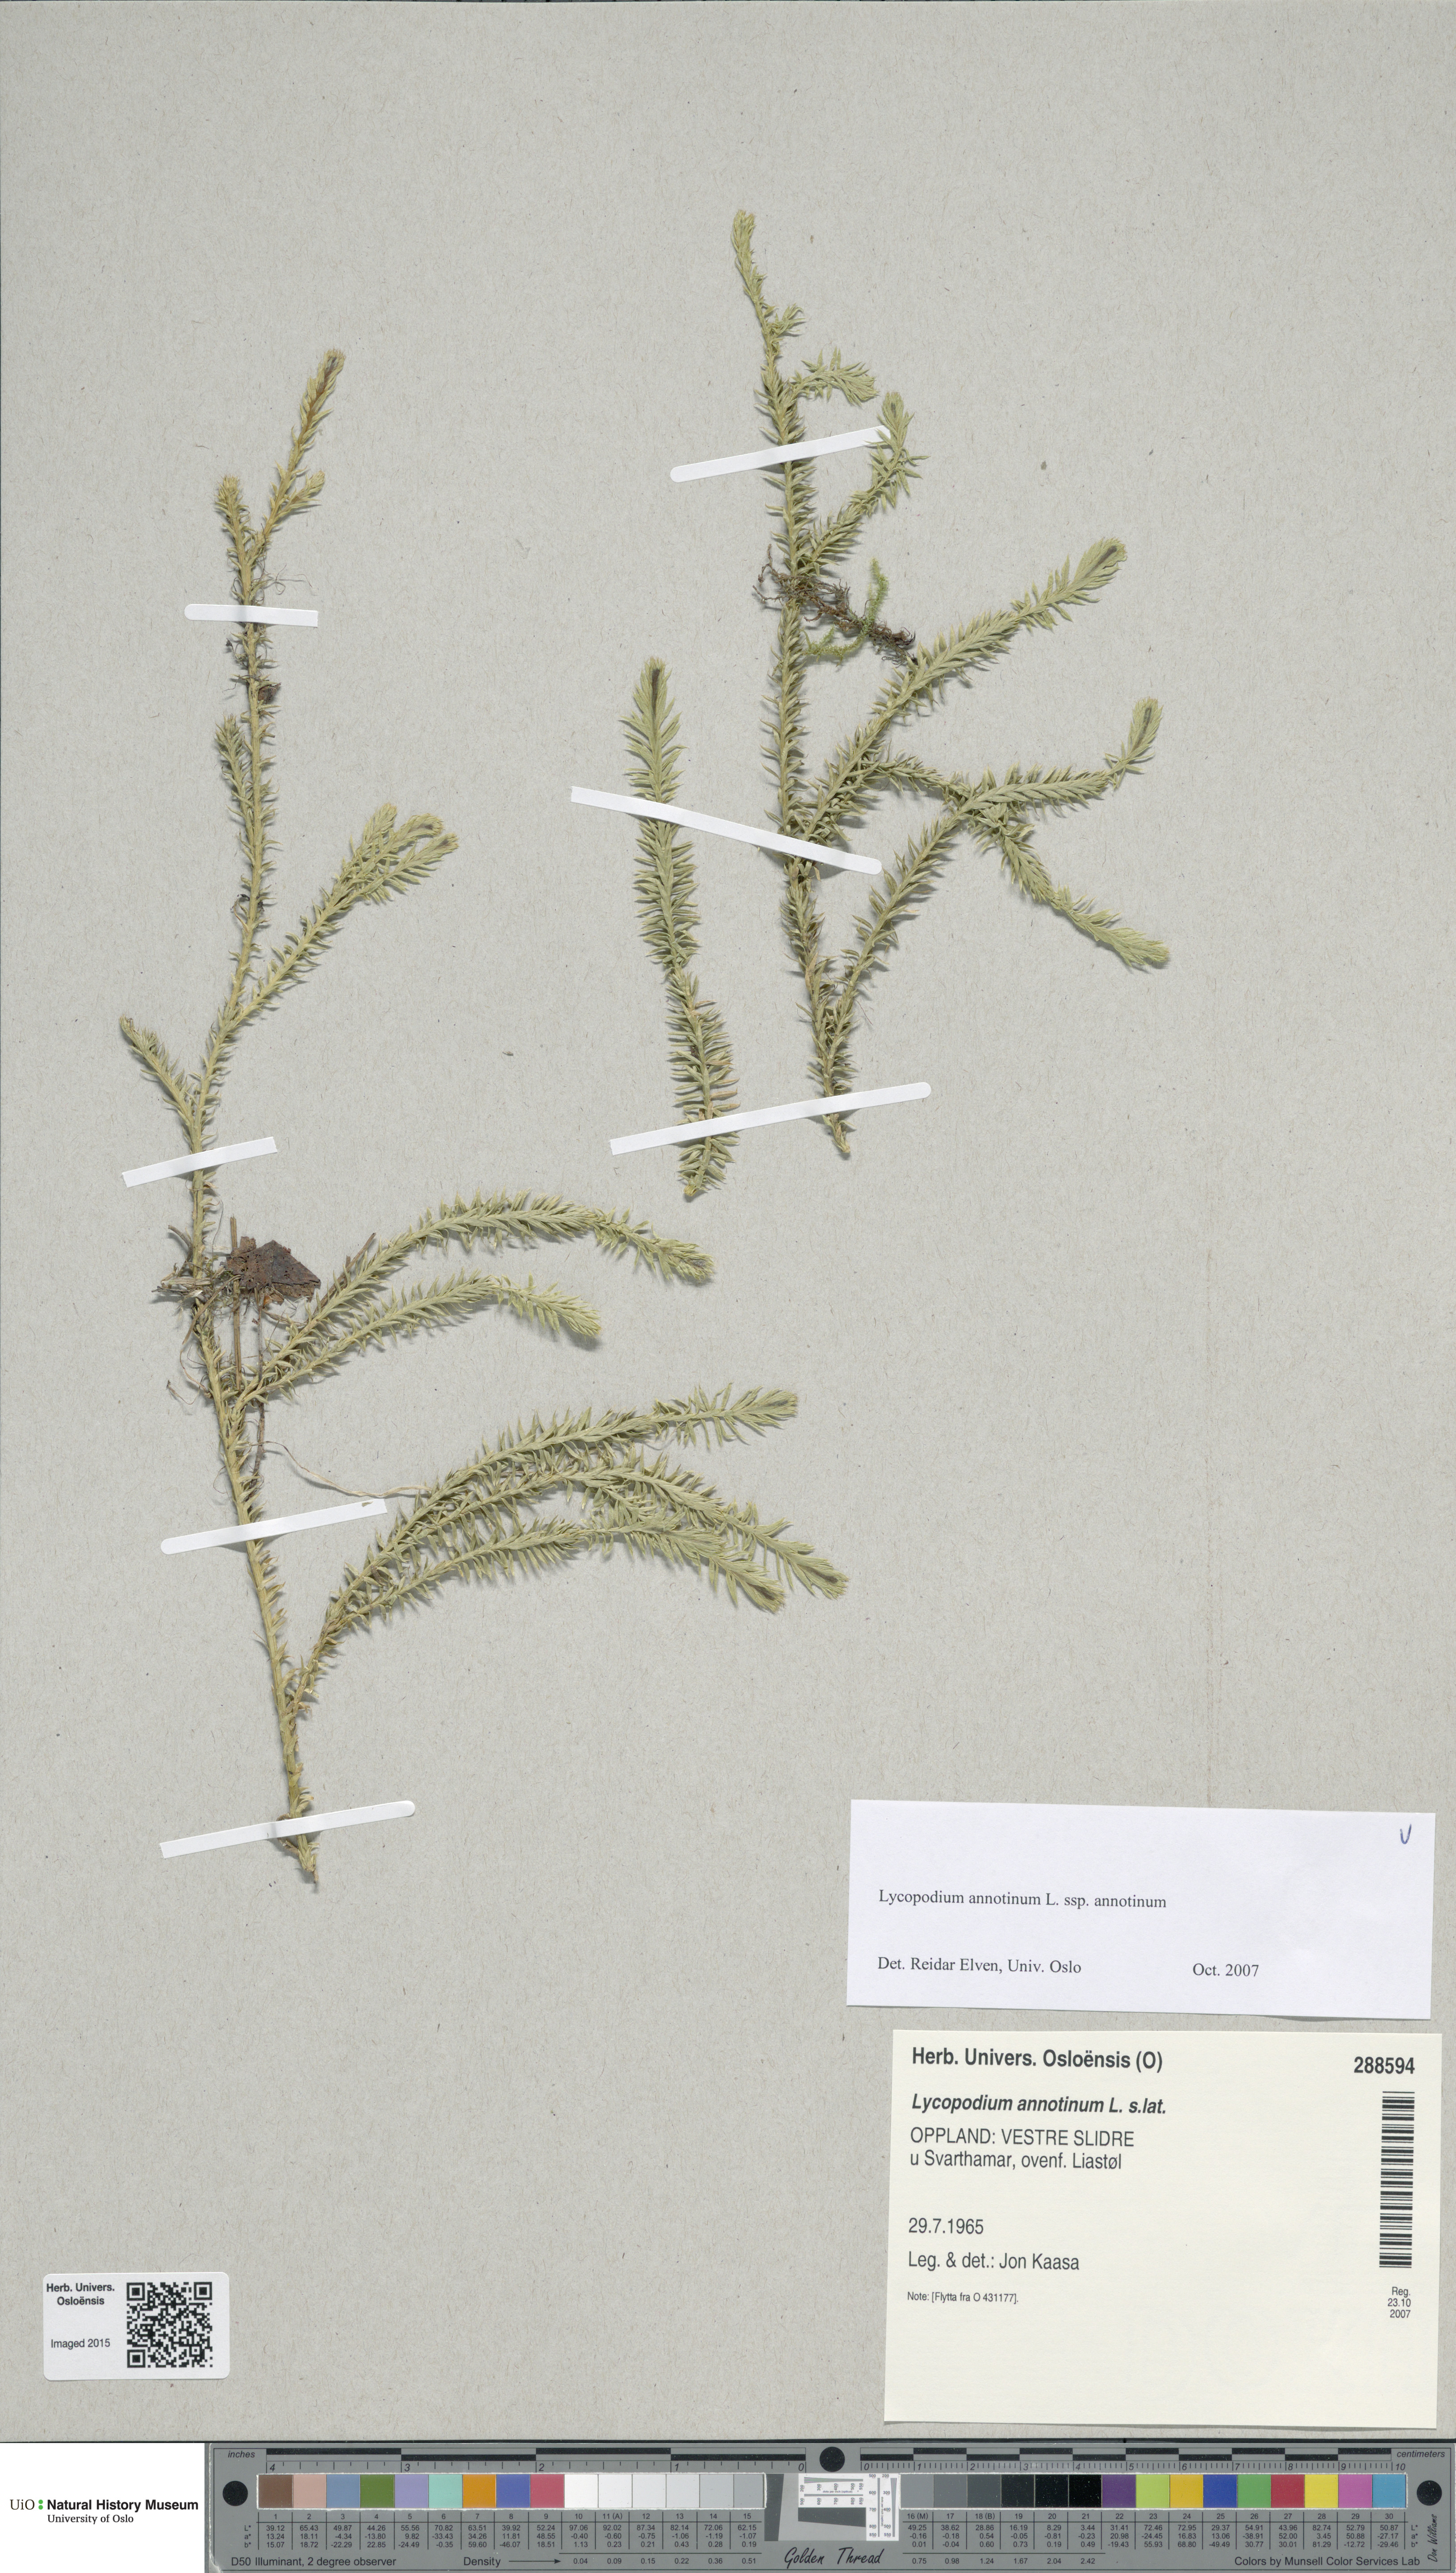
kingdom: Plantae
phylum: Tracheophyta
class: Lycopodiopsida
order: Lycopodiales
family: Lycopodiaceae
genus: Spinulum
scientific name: Spinulum annotinum
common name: Interrupted club-moss
